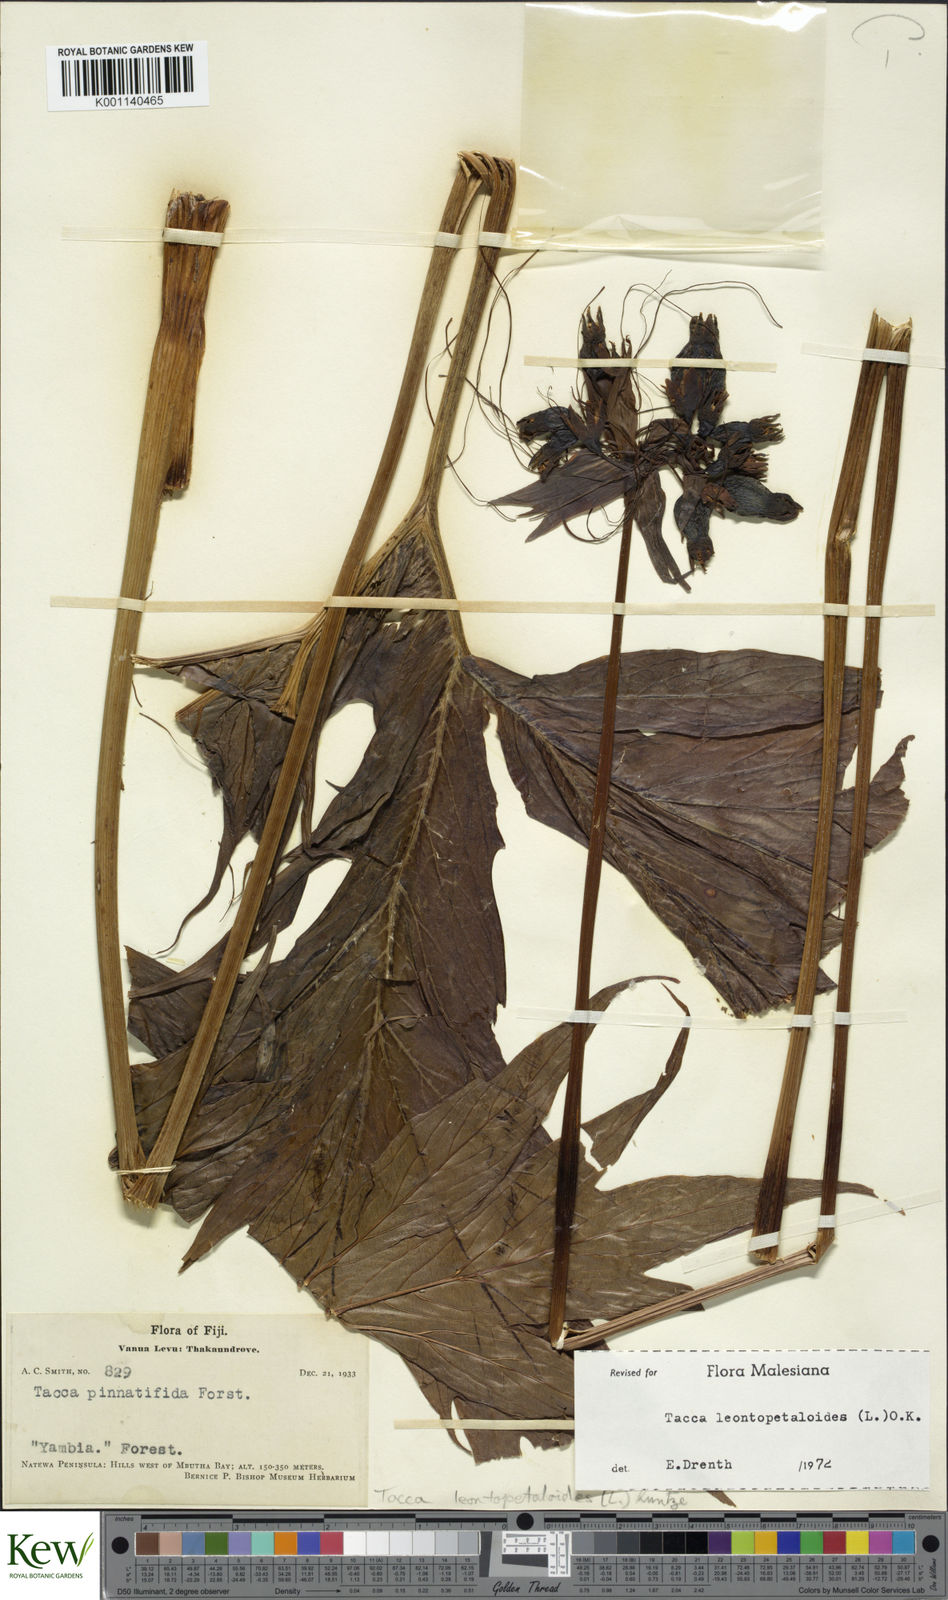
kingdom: Plantae
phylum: Tracheophyta
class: Liliopsida
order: Dioscoreales
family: Dioscoreaceae
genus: Tacca
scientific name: Tacca leontopetaloides
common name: Arrowroot
